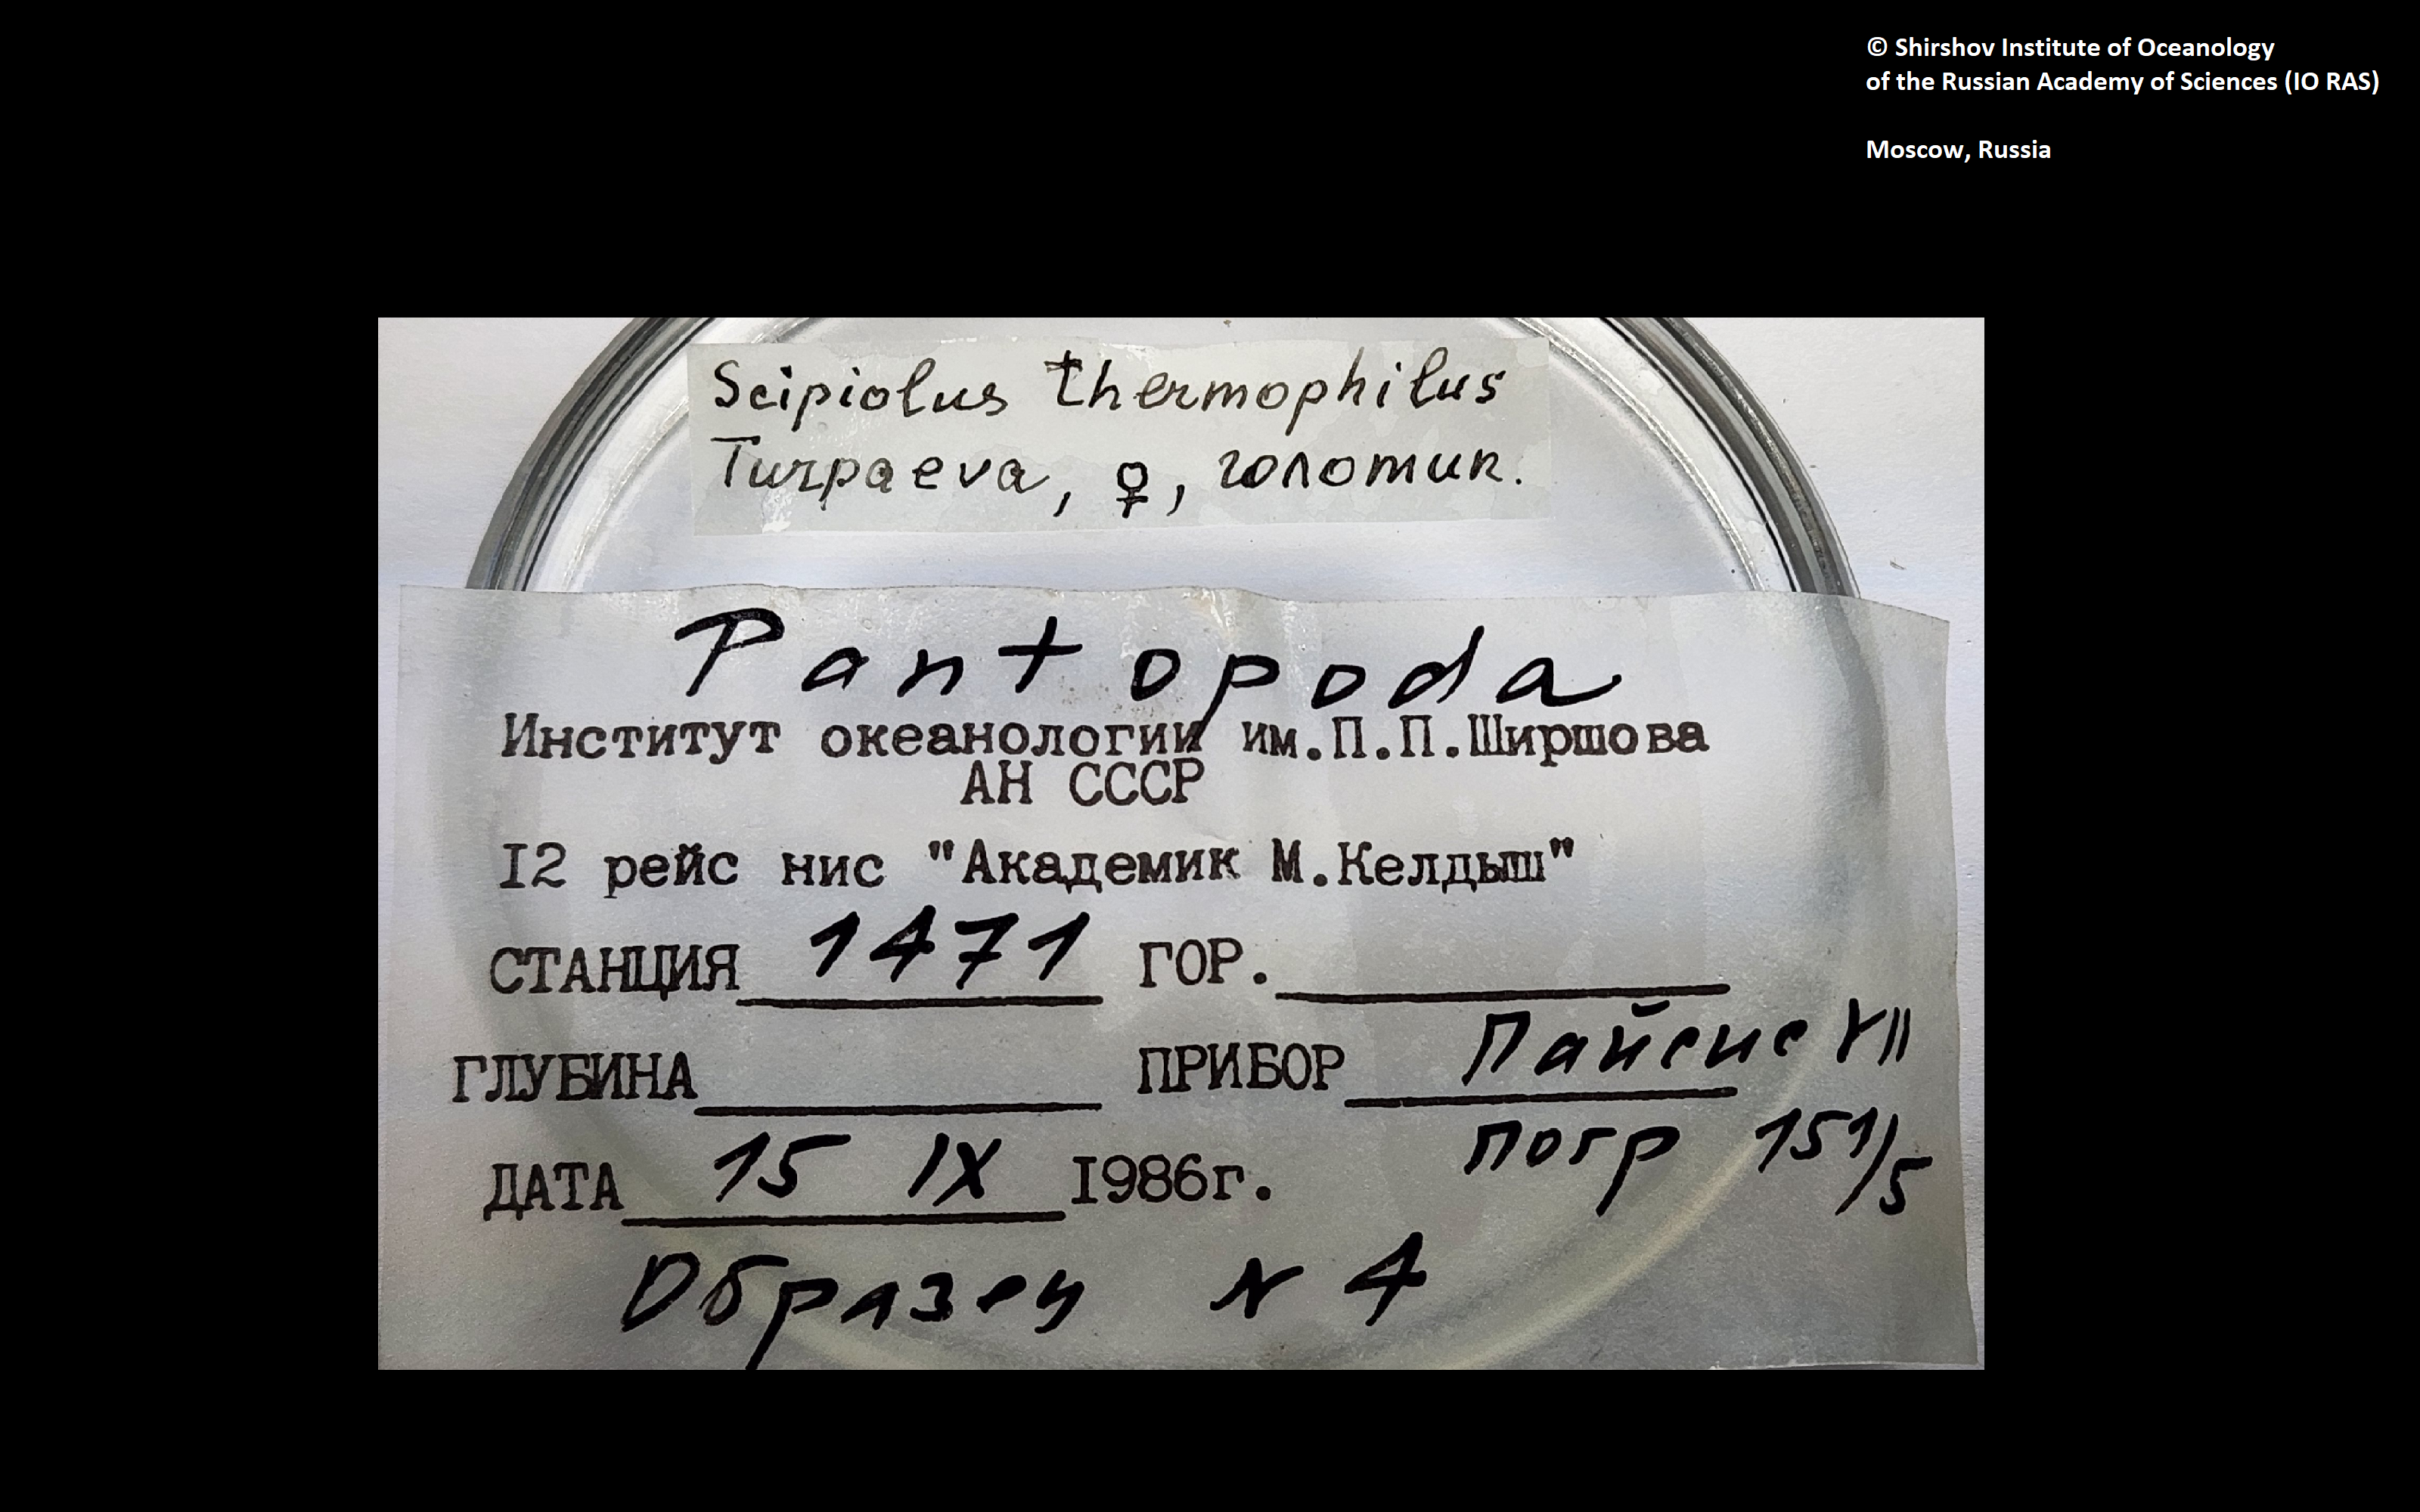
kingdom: Animalia
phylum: Arthropoda
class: Pycnogonida
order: Pantopoda
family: Ammotheidae
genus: Sericosura
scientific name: Sericosura verenae
